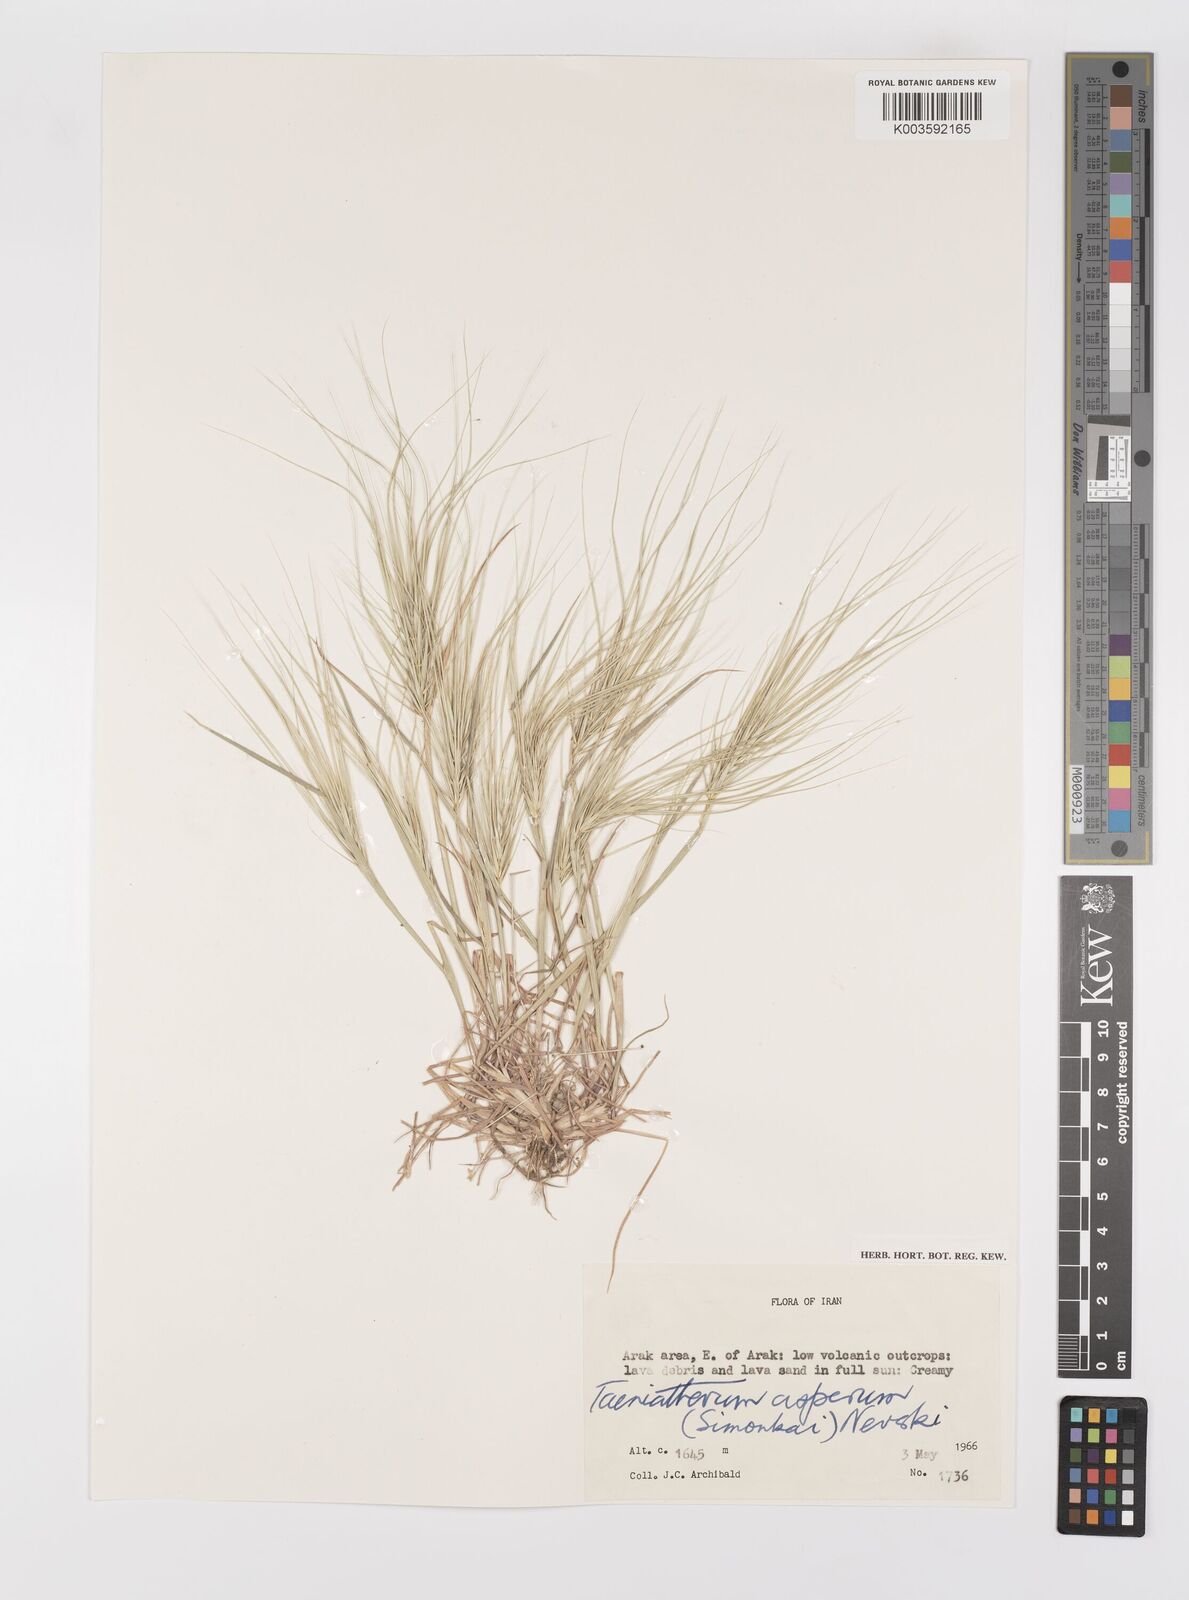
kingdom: Plantae
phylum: Tracheophyta
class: Liliopsida
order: Poales
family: Poaceae
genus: Taeniatherum
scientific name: Taeniatherum caput-medusae
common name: Medusahead
